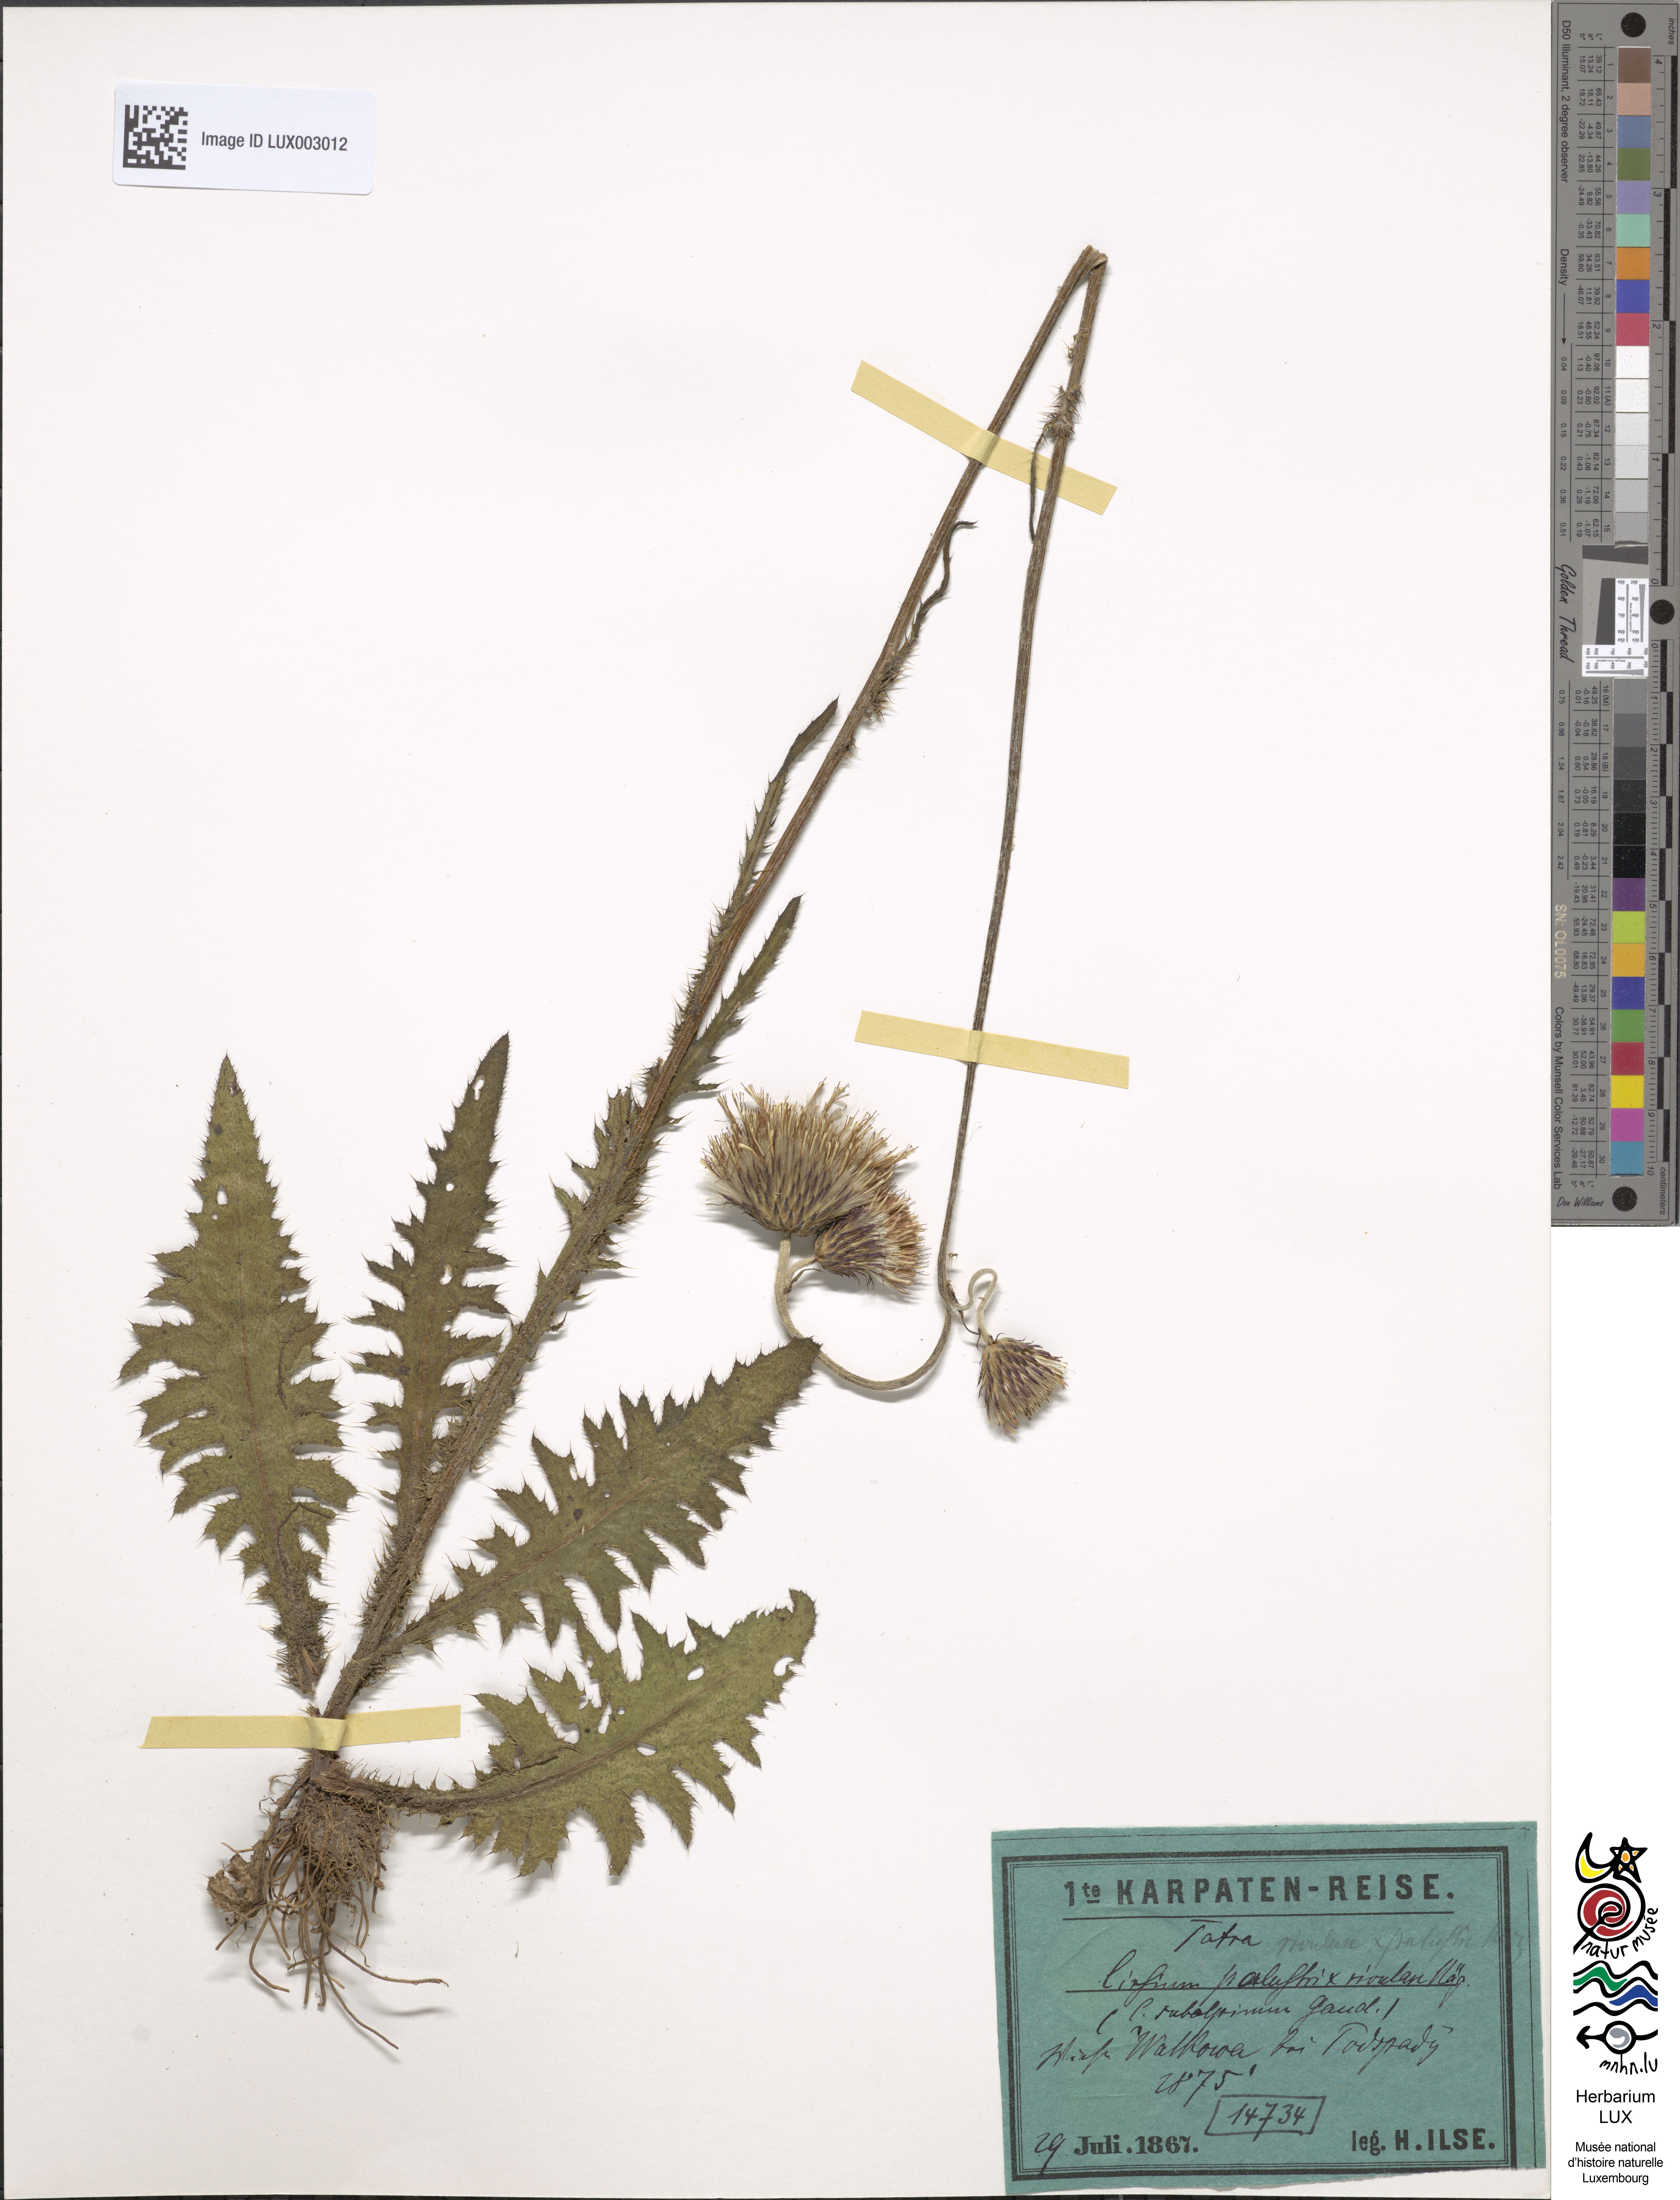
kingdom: Plantae
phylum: Tracheophyta
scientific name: Tracheophyta
